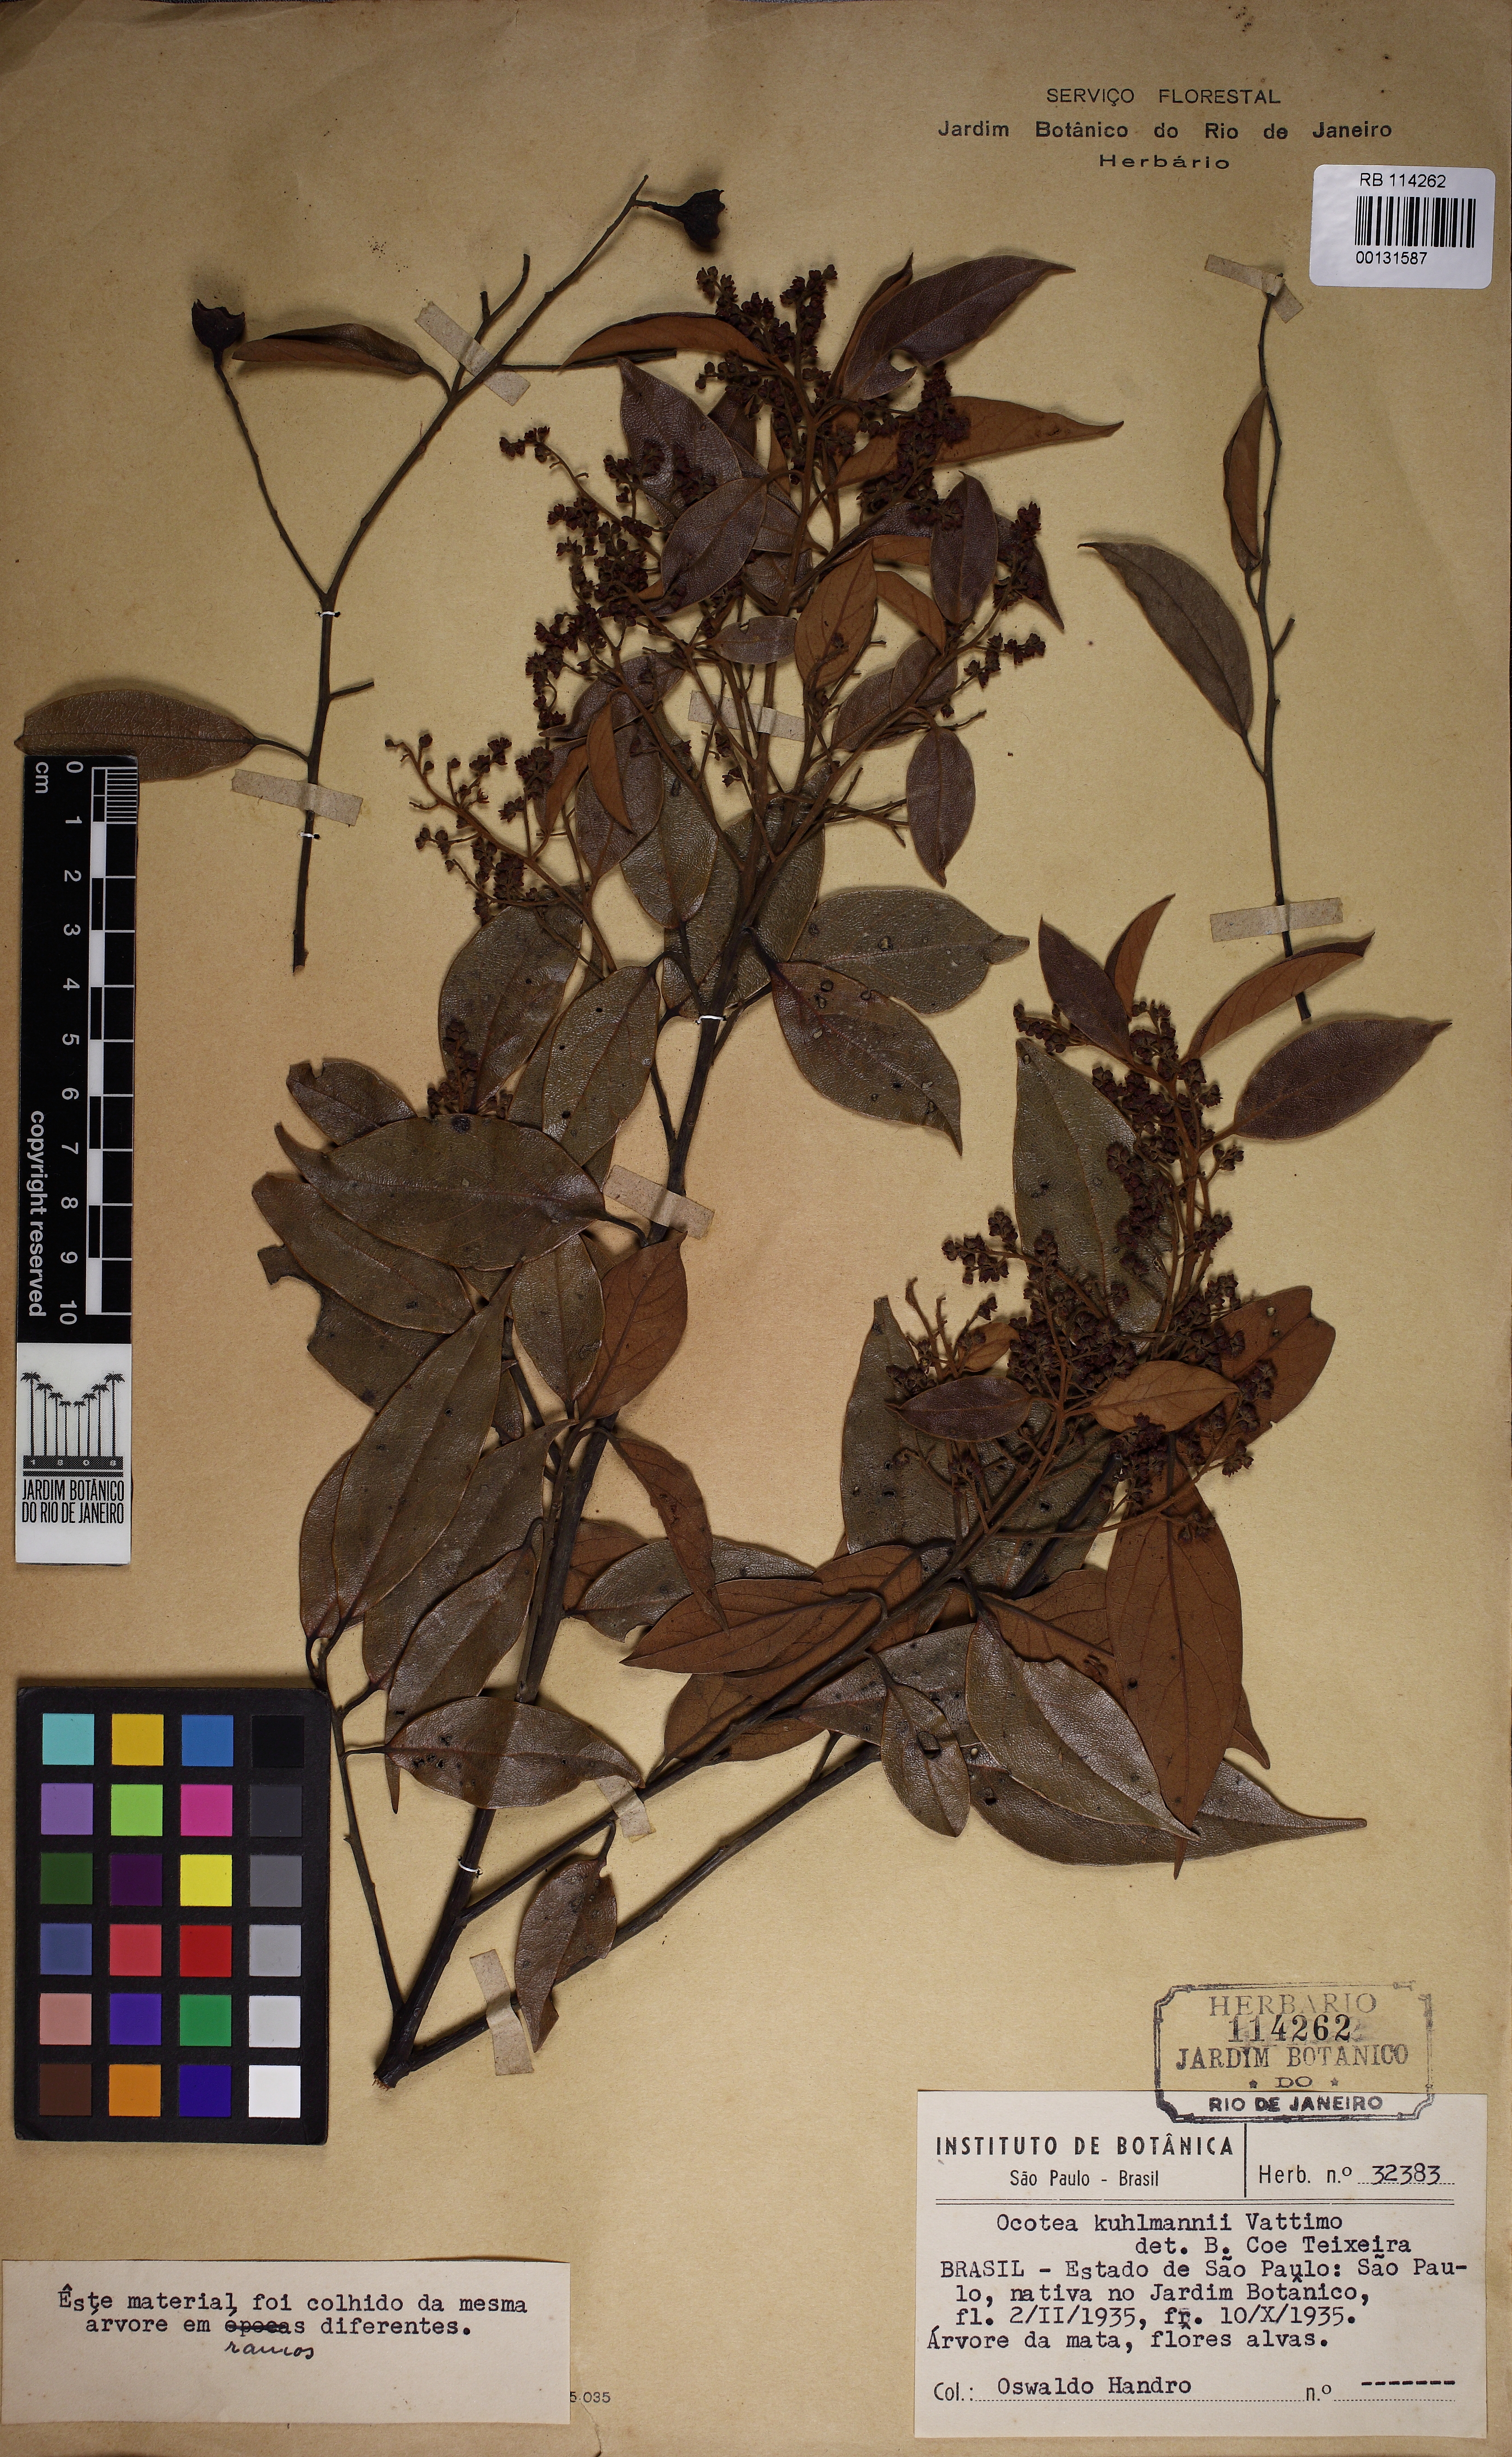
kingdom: Plantae
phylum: Tracheophyta
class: Magnoliopsida
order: Laurales
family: Lauraceae
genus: Ocotea
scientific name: Ocotea urbaniana
